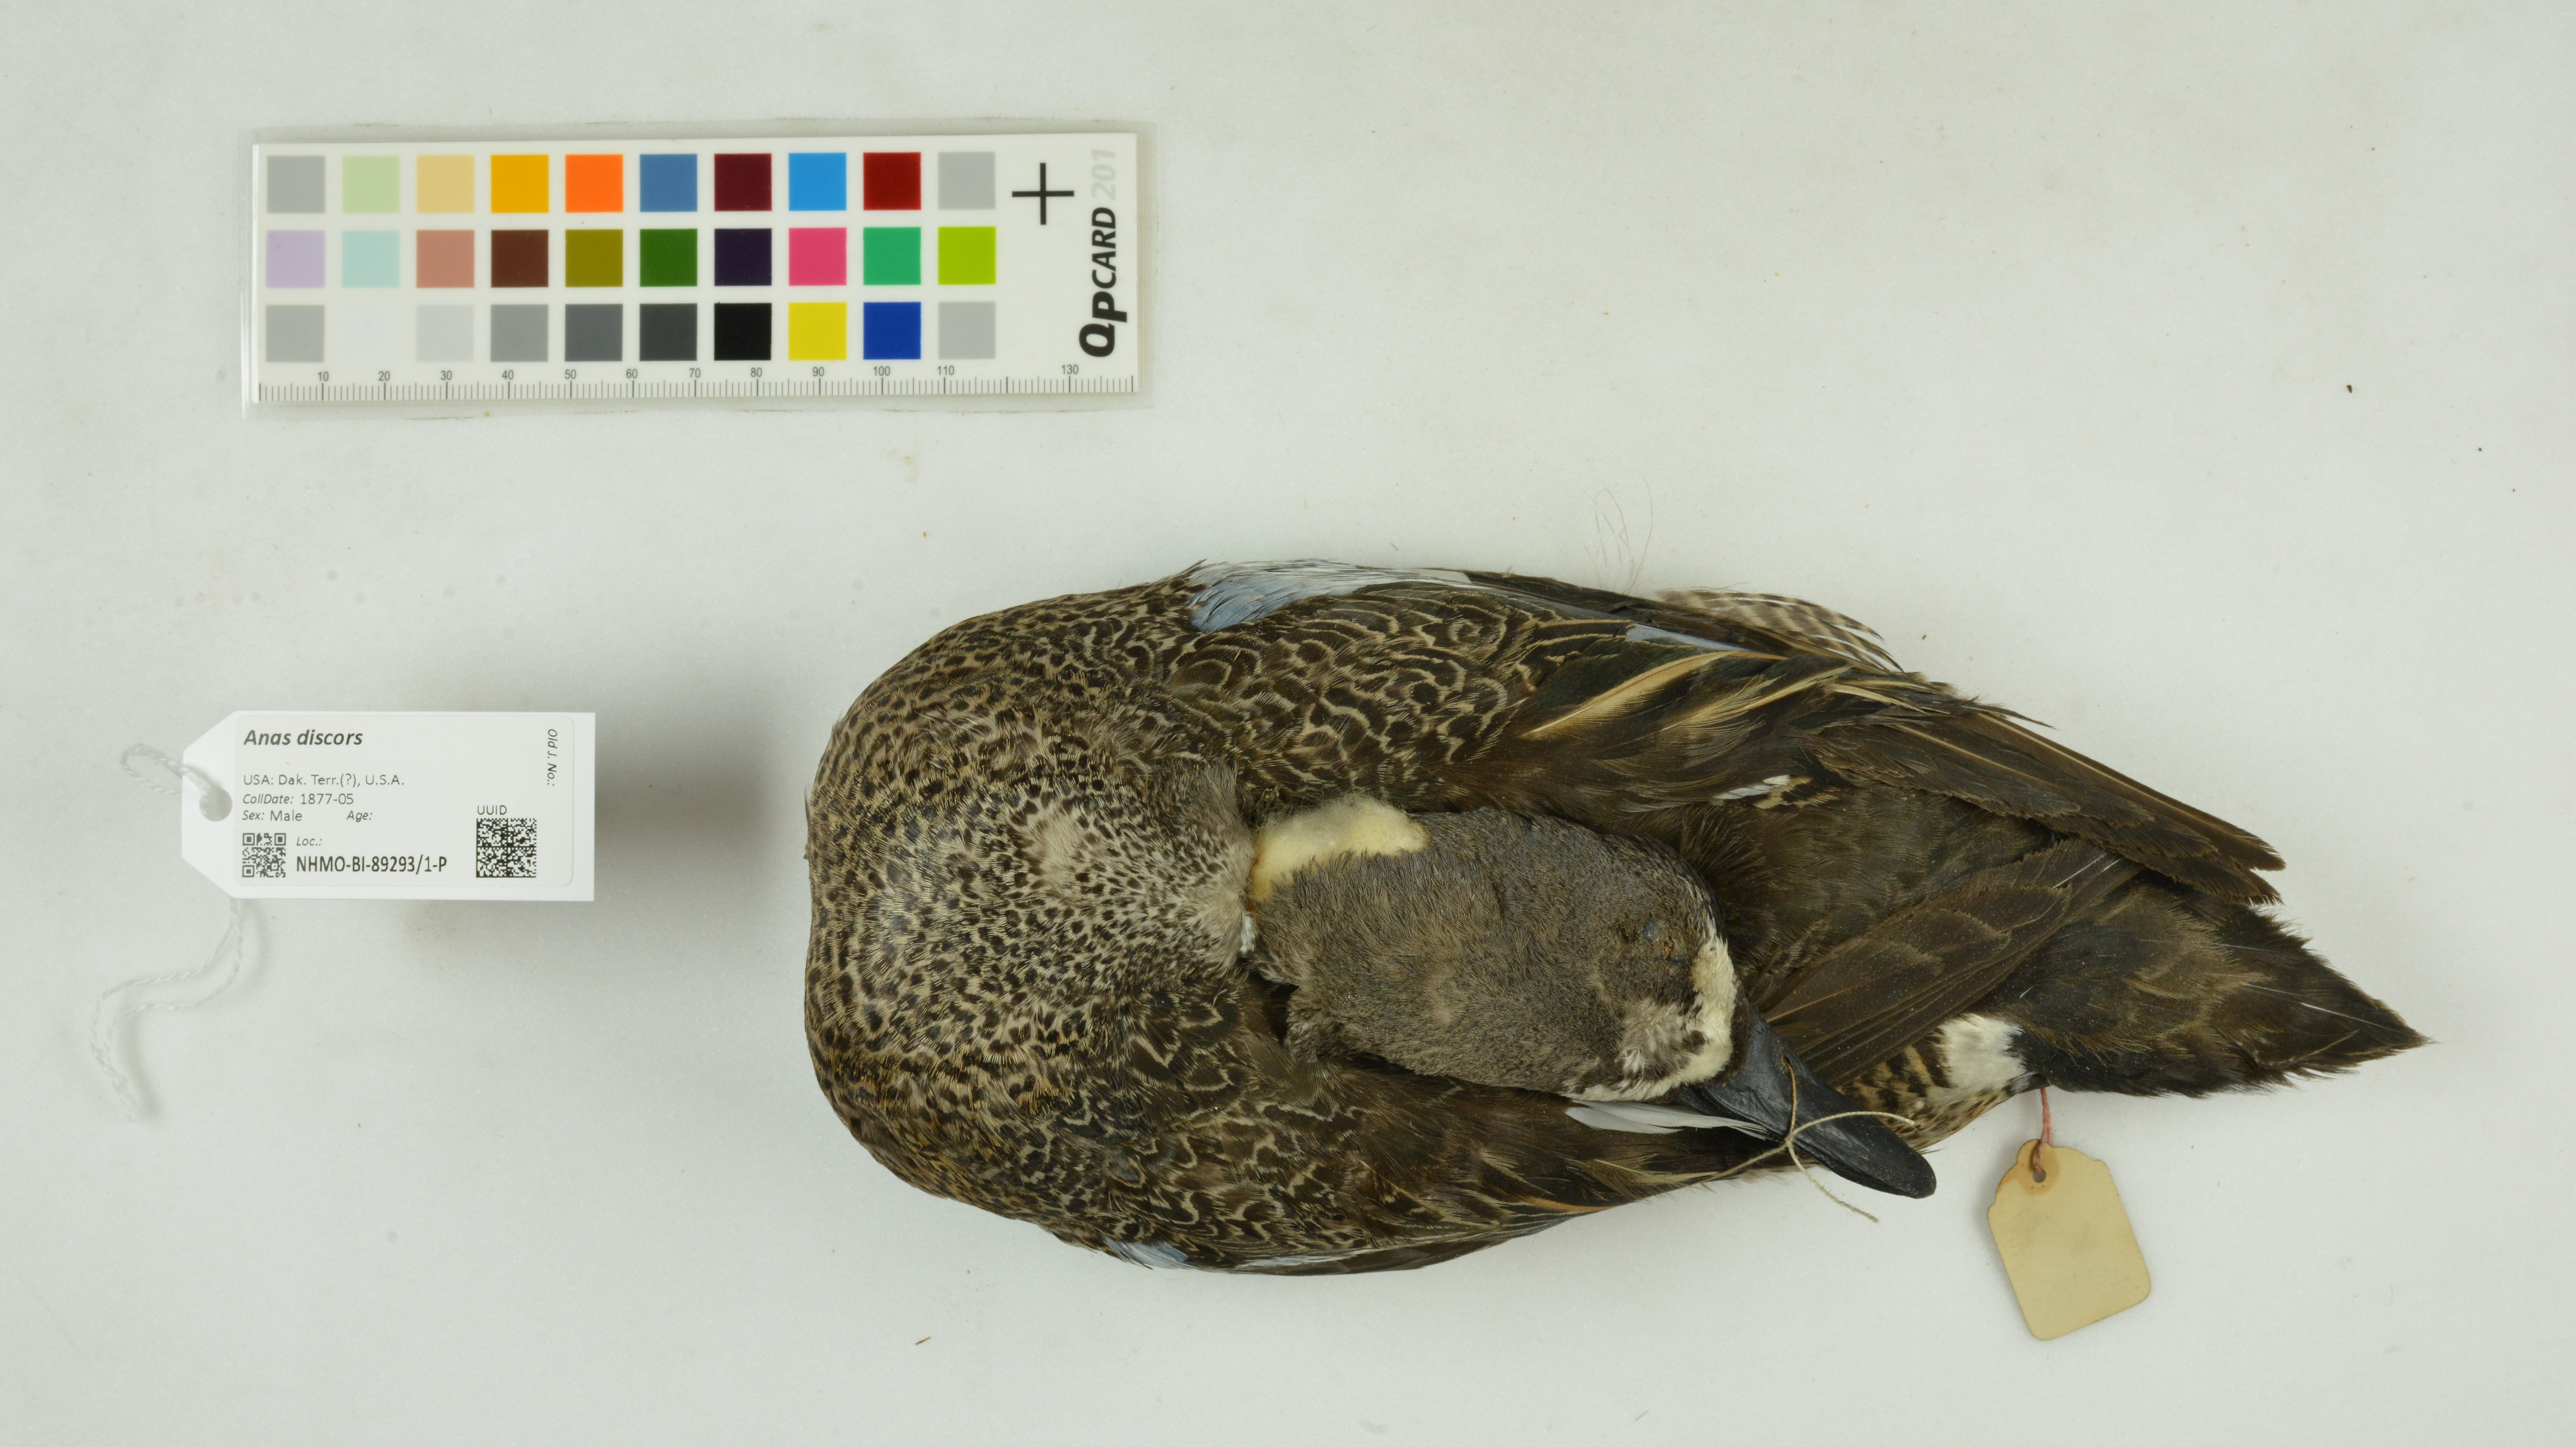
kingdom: Animalia
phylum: Chordata
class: Aves
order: Anseriformes
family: Anatidae
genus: Spatula
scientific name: Spatula discors
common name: Blue-winged teal
